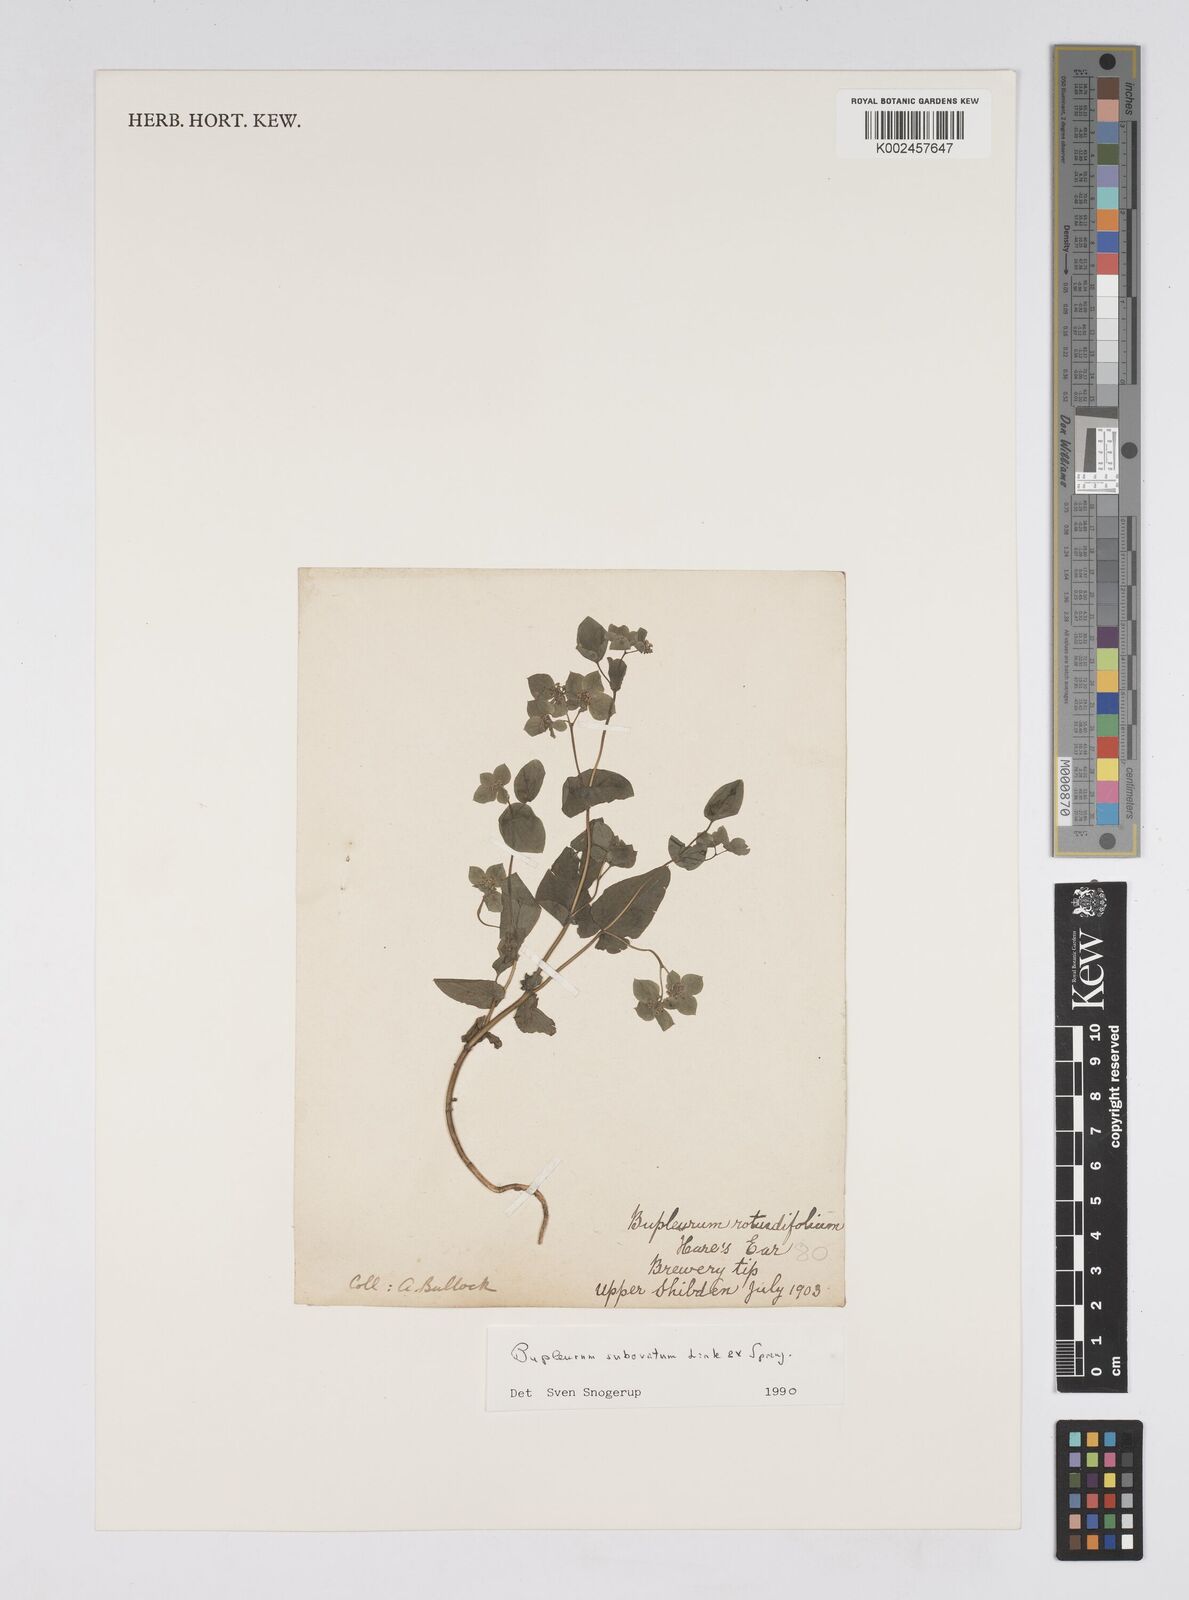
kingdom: Plantae
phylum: Tracheophyta
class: Magnoliopsida
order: Apiales
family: Apiaceae
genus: Bupleurum
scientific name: Bupleurum subovatum
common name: False thorow-wax
